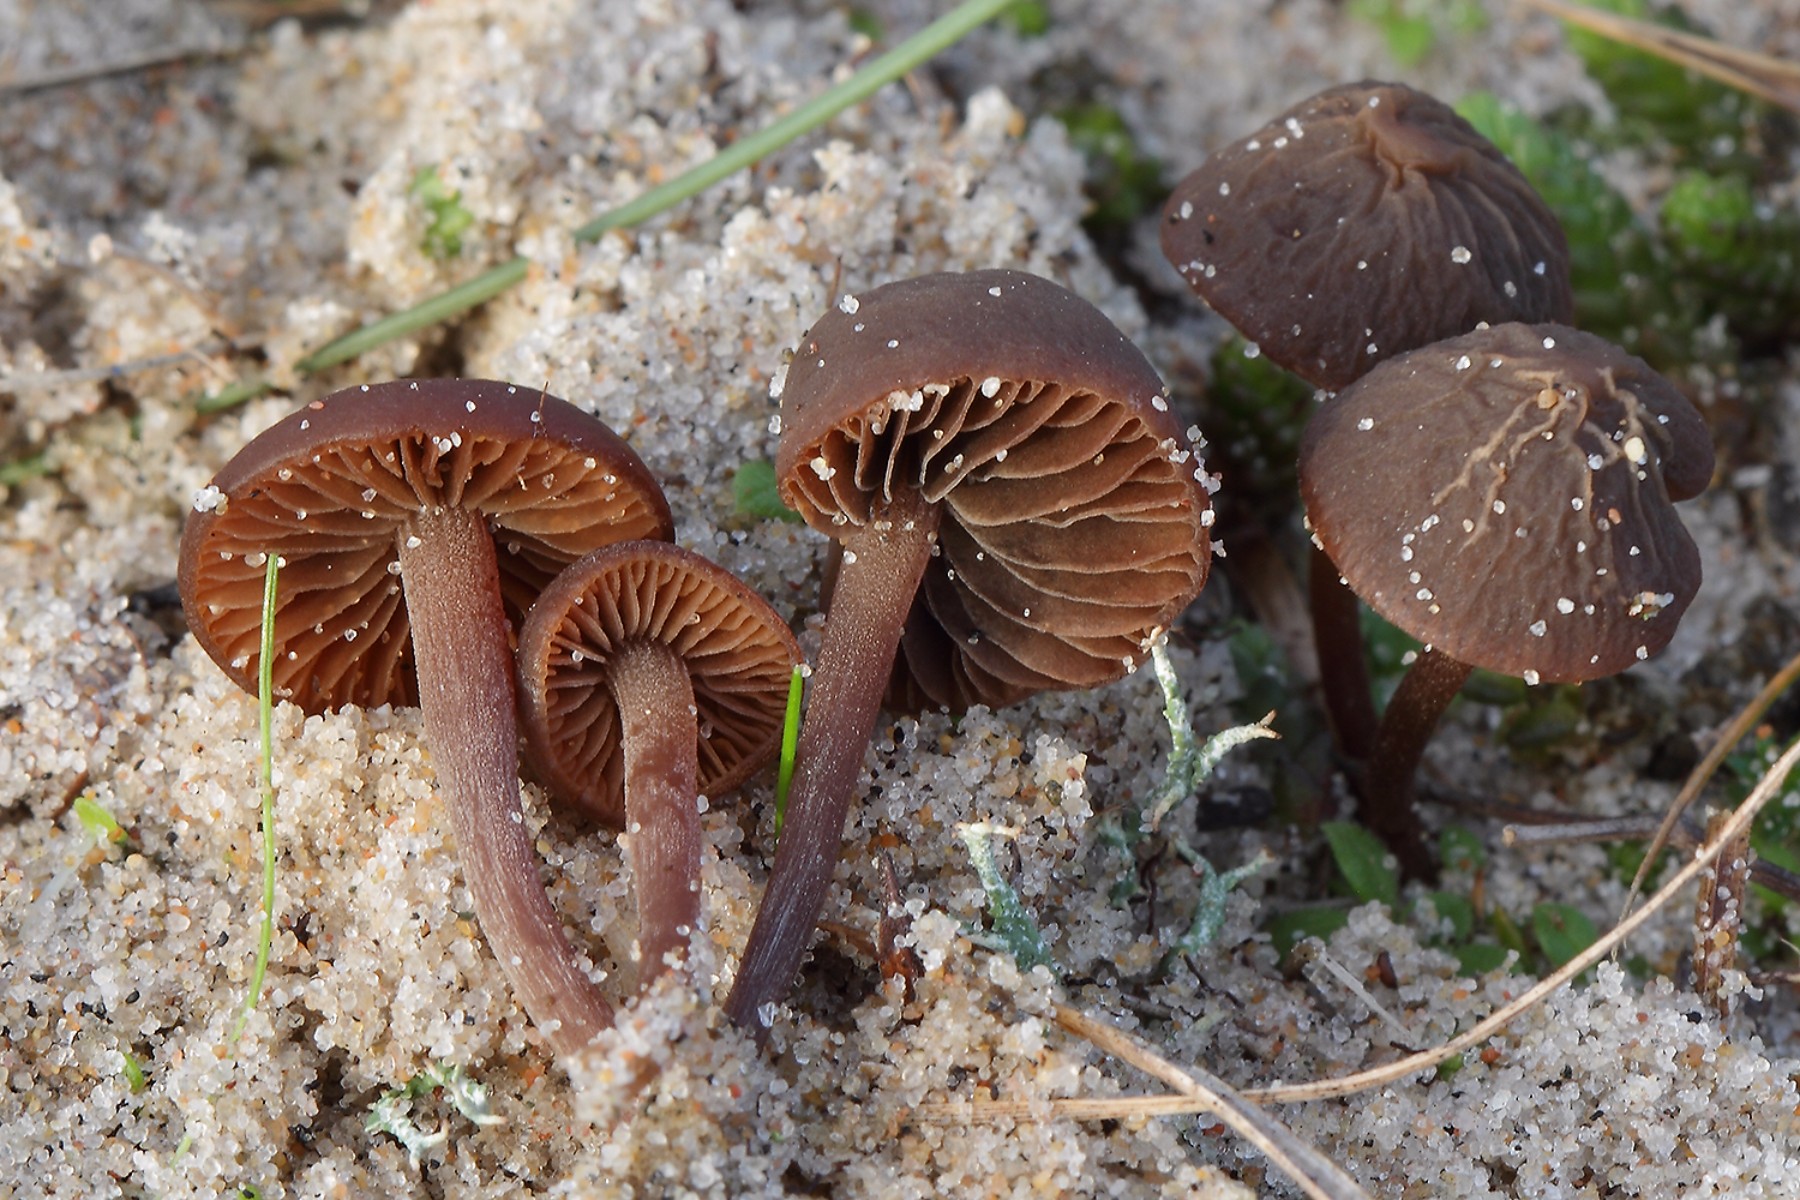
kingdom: Fungi
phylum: Basidiomycota
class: Agaricomycetes
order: Agaricales
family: Bolbitiaceae
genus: Panaeolus
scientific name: Panaeolus acuminatus
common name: høj glanshat
